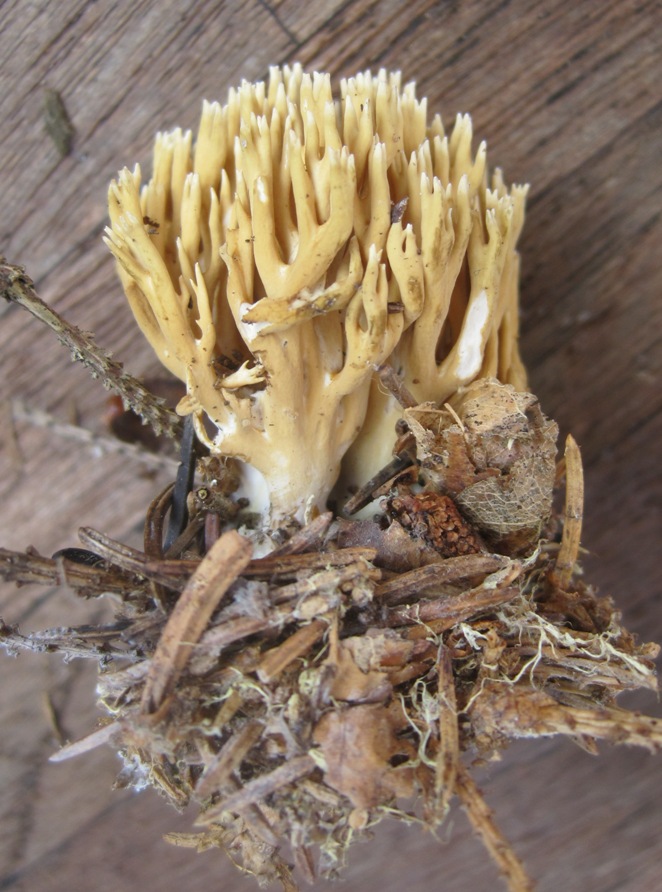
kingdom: Fungi
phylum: Basidiomycota
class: Agaricomycetes
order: Gomphales
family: Gomphaceae
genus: Phaeoclavulina
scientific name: Phaeoclavulina eumorpha
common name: gran-koralsvamp
